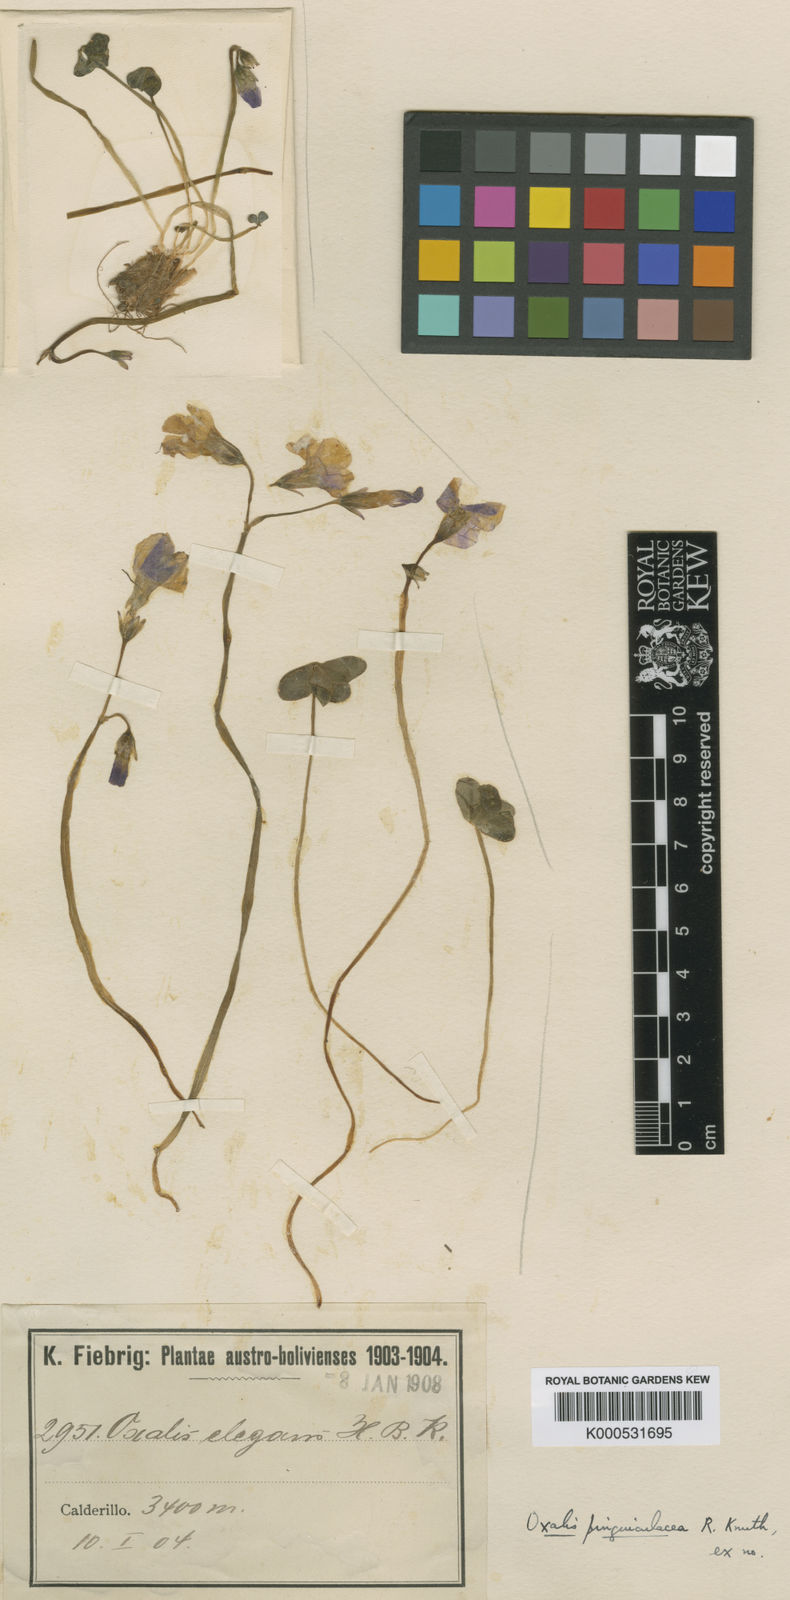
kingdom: Plantae
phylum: Tracheophyta
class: Magnoliopsida
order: Oxalidales
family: Oxalidaceae
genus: Oxalis
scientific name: Oxalis pinguiculacea
